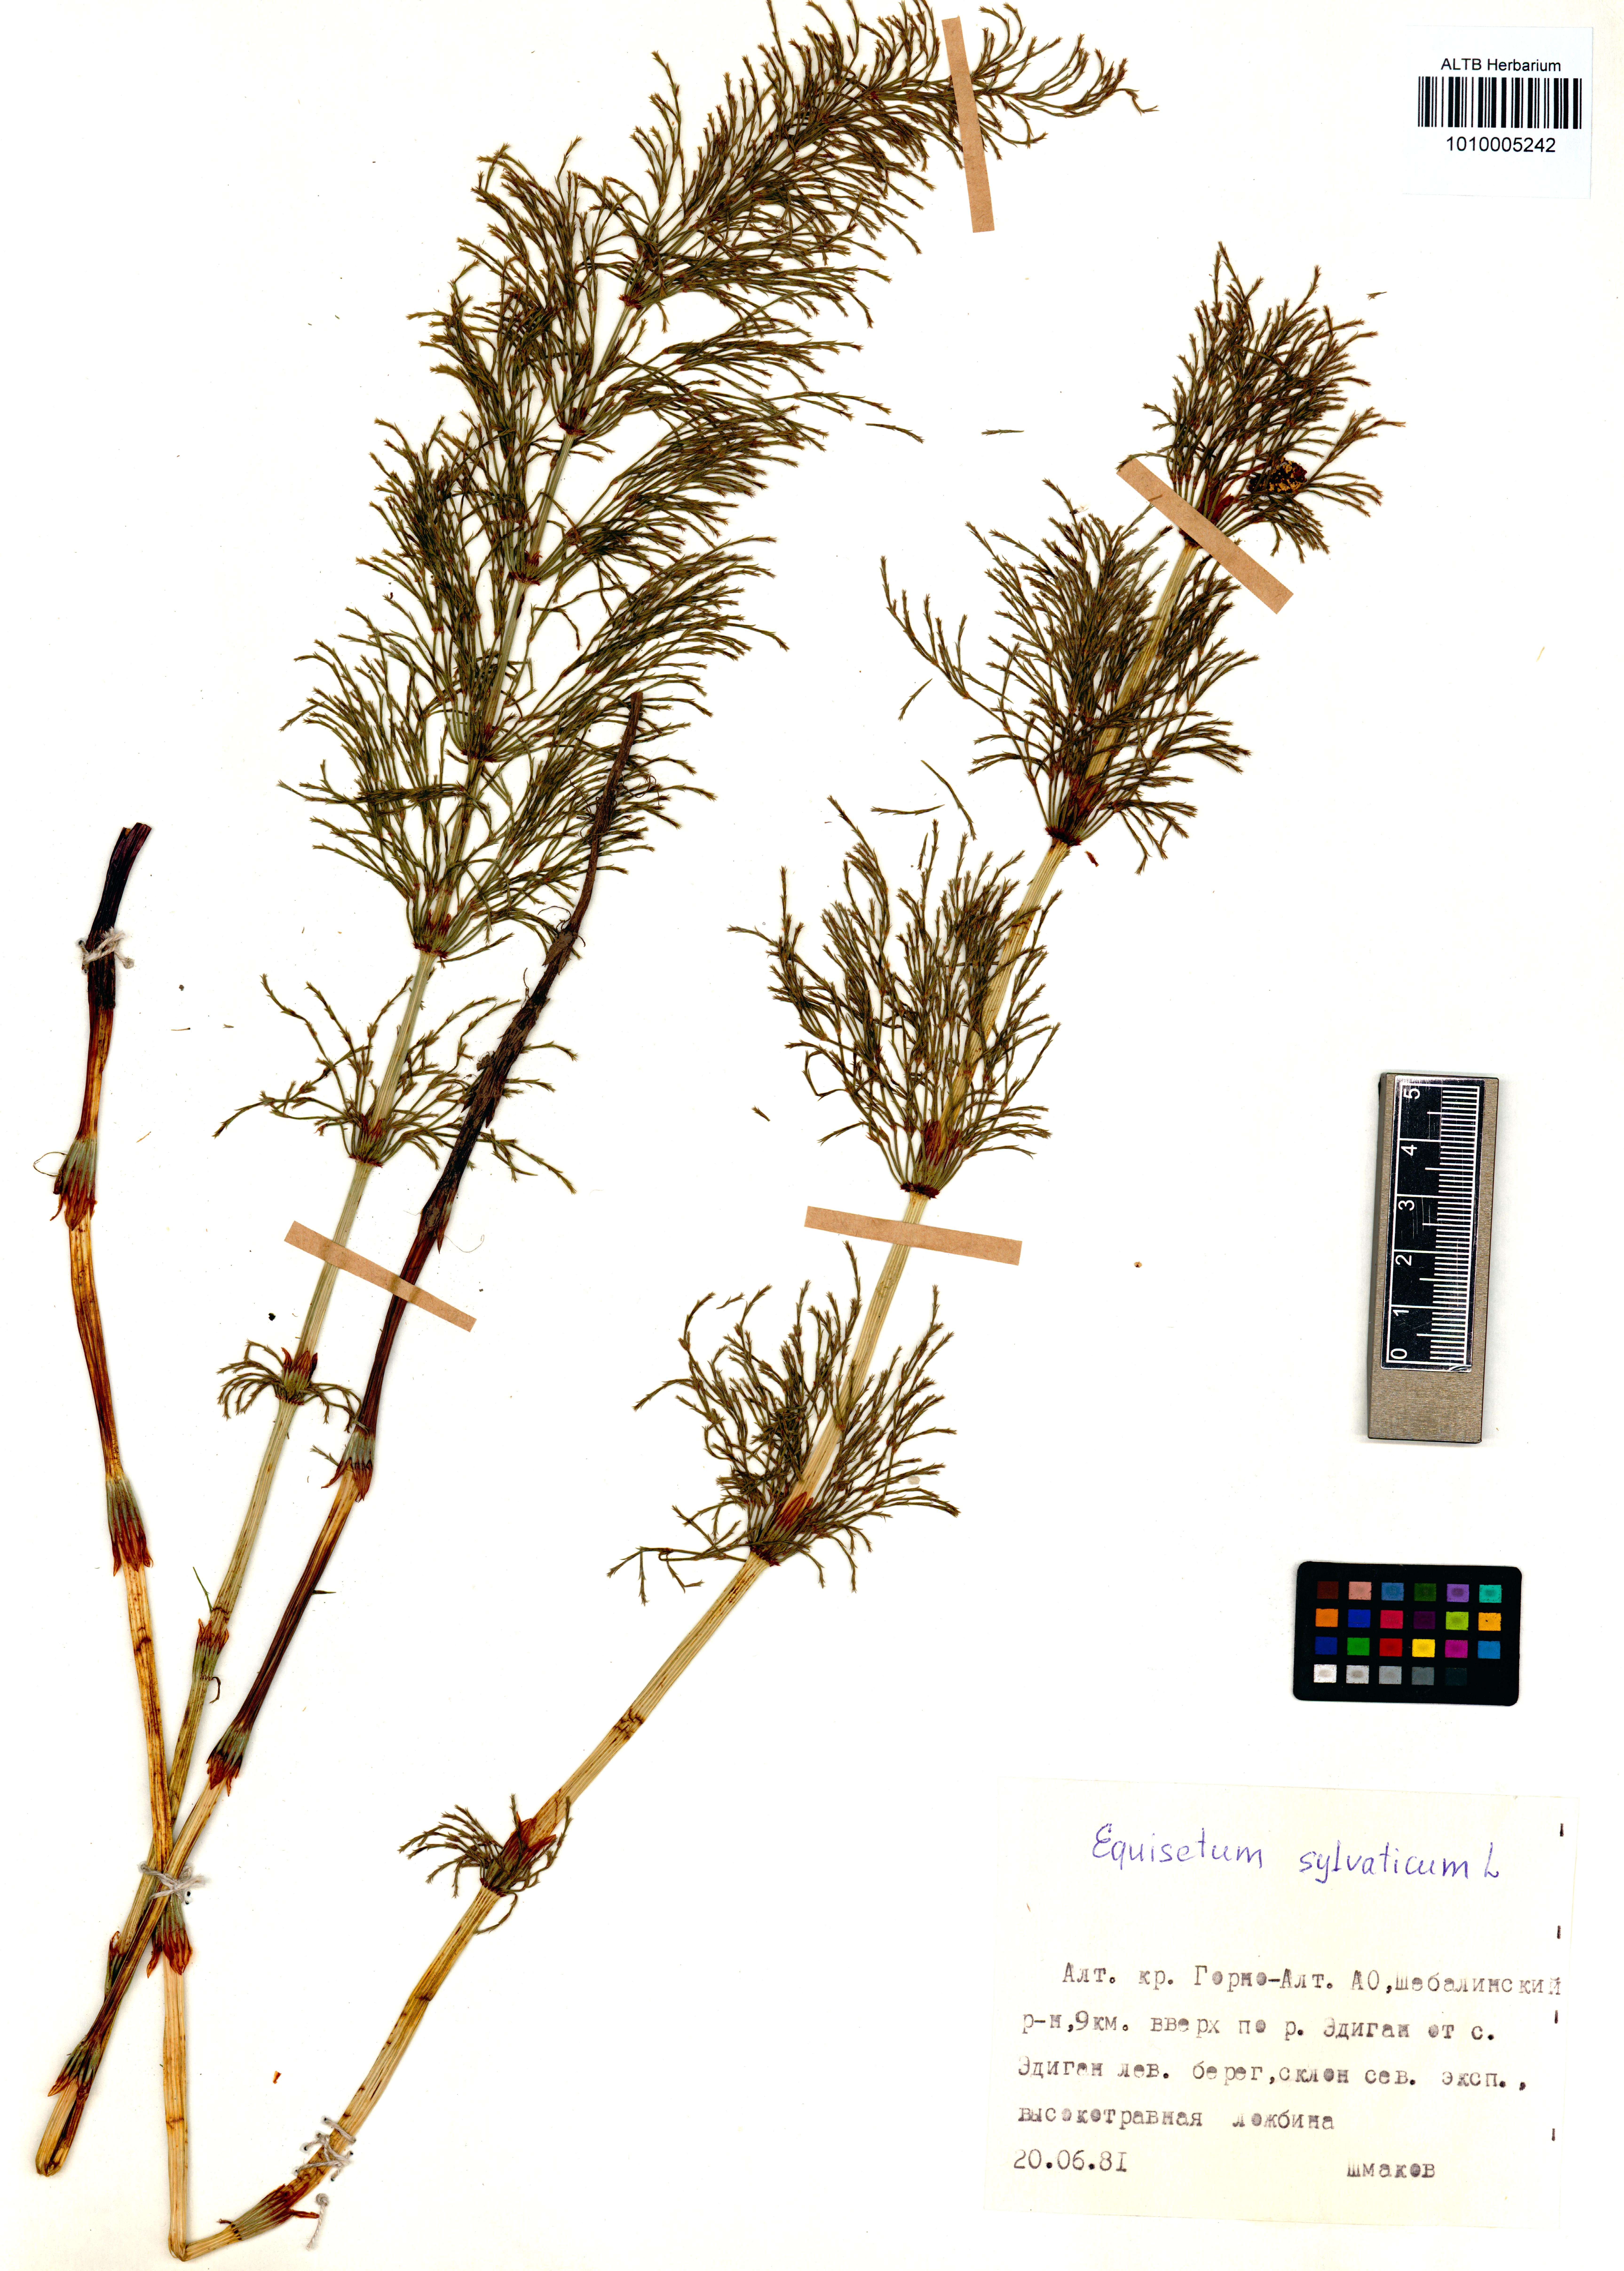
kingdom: Plantae
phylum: Tracheophyta
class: Polypodiopsida
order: Equisetales
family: Equisetaceae
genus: Equisetum
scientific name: Equisetum sylvaticum
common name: Wood horsetail
